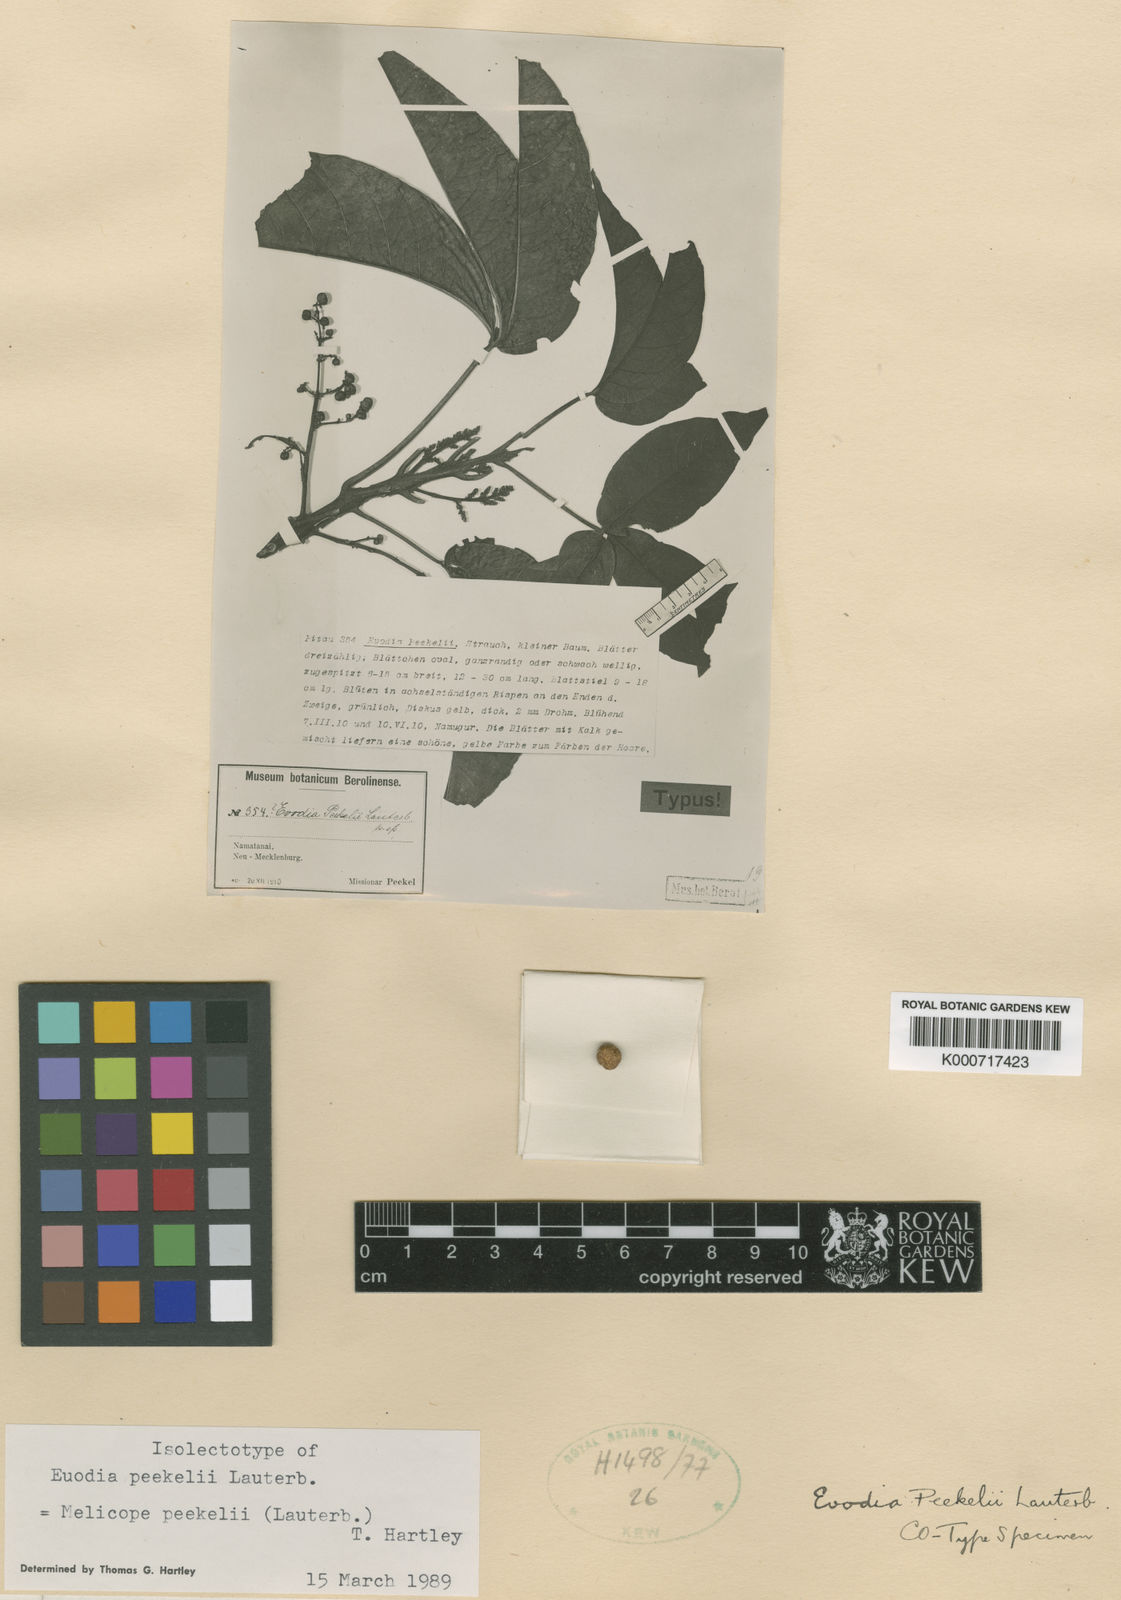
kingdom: Plantae
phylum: Tracheophyta
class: Magnoliopsida
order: Sapindales
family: Rutaceae
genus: Melicope
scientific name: Melicope
